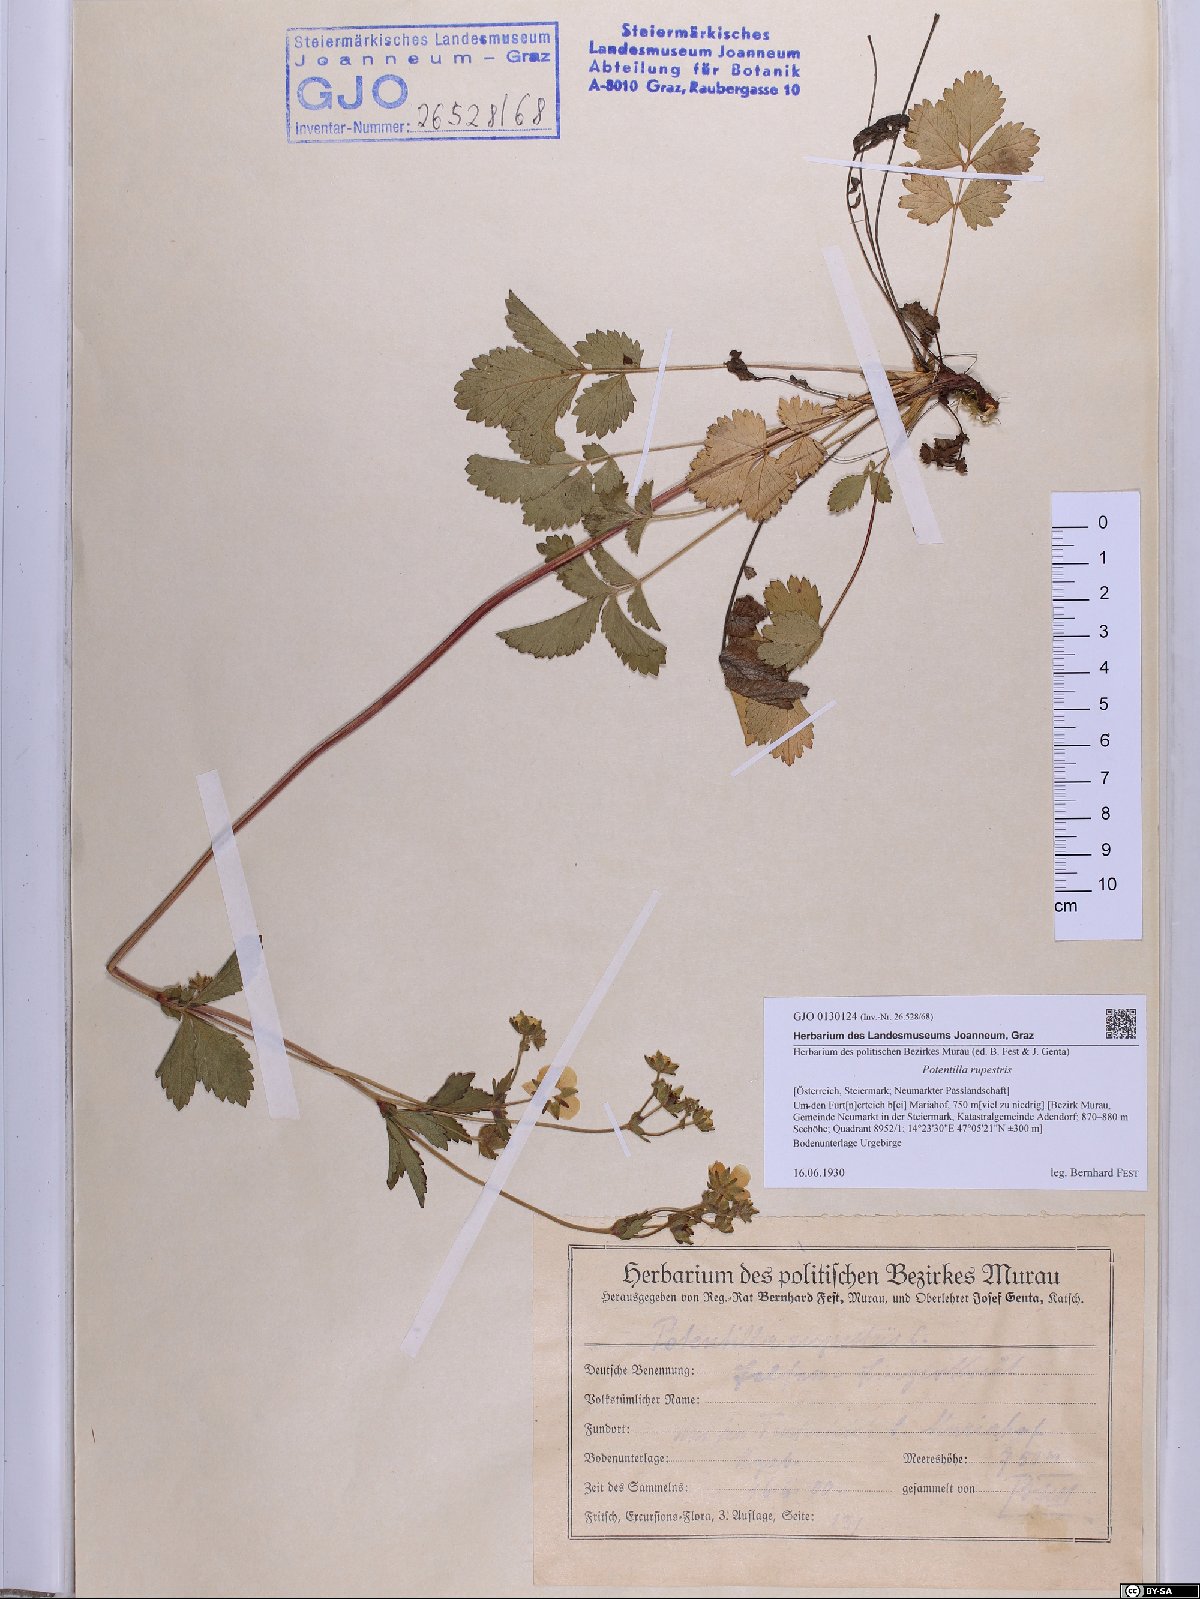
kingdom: Plantae
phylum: Tracheophyta
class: Magnoliopsida
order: Rosales
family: Rosaceae
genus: Drymocallis
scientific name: Drymocallis rupestris
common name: Rock cinquefoil
